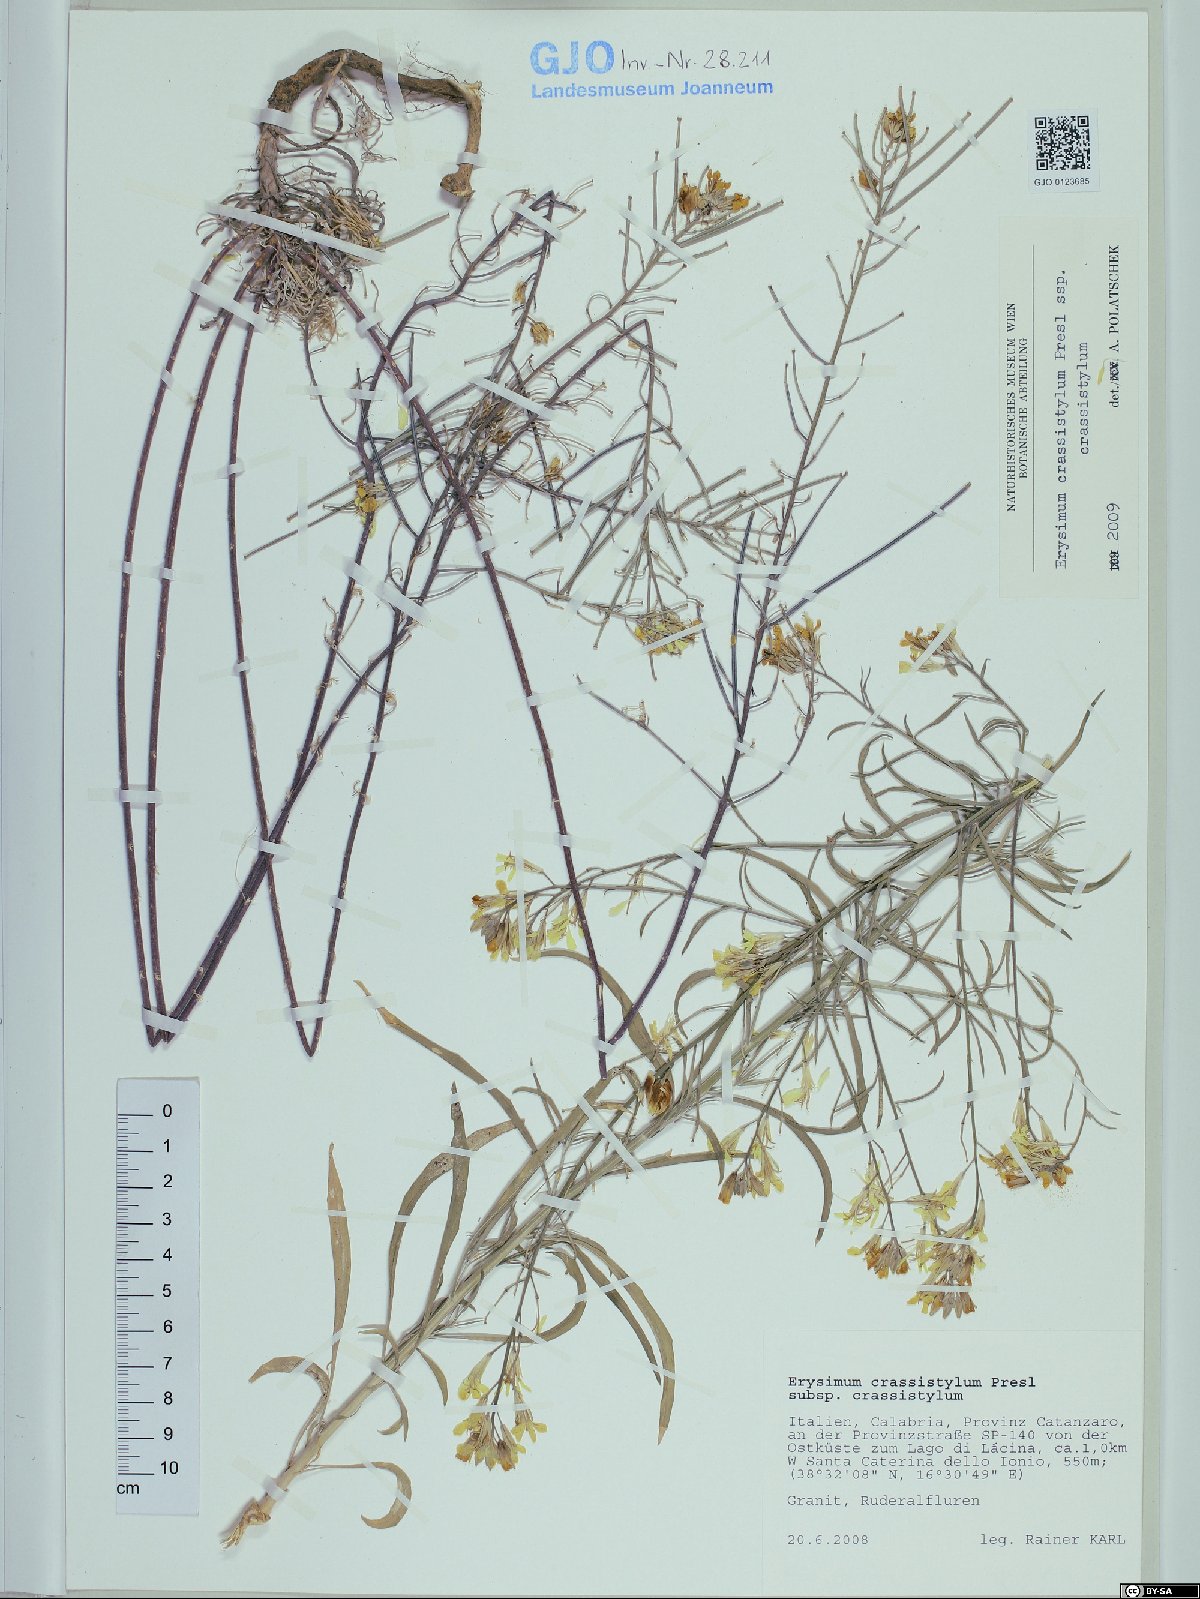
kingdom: Plantae
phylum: Tracheophyta
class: Magnoliopsida
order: Brassicales
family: Brassicaceae
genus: Erysimum
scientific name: Erysimum crassistylum
